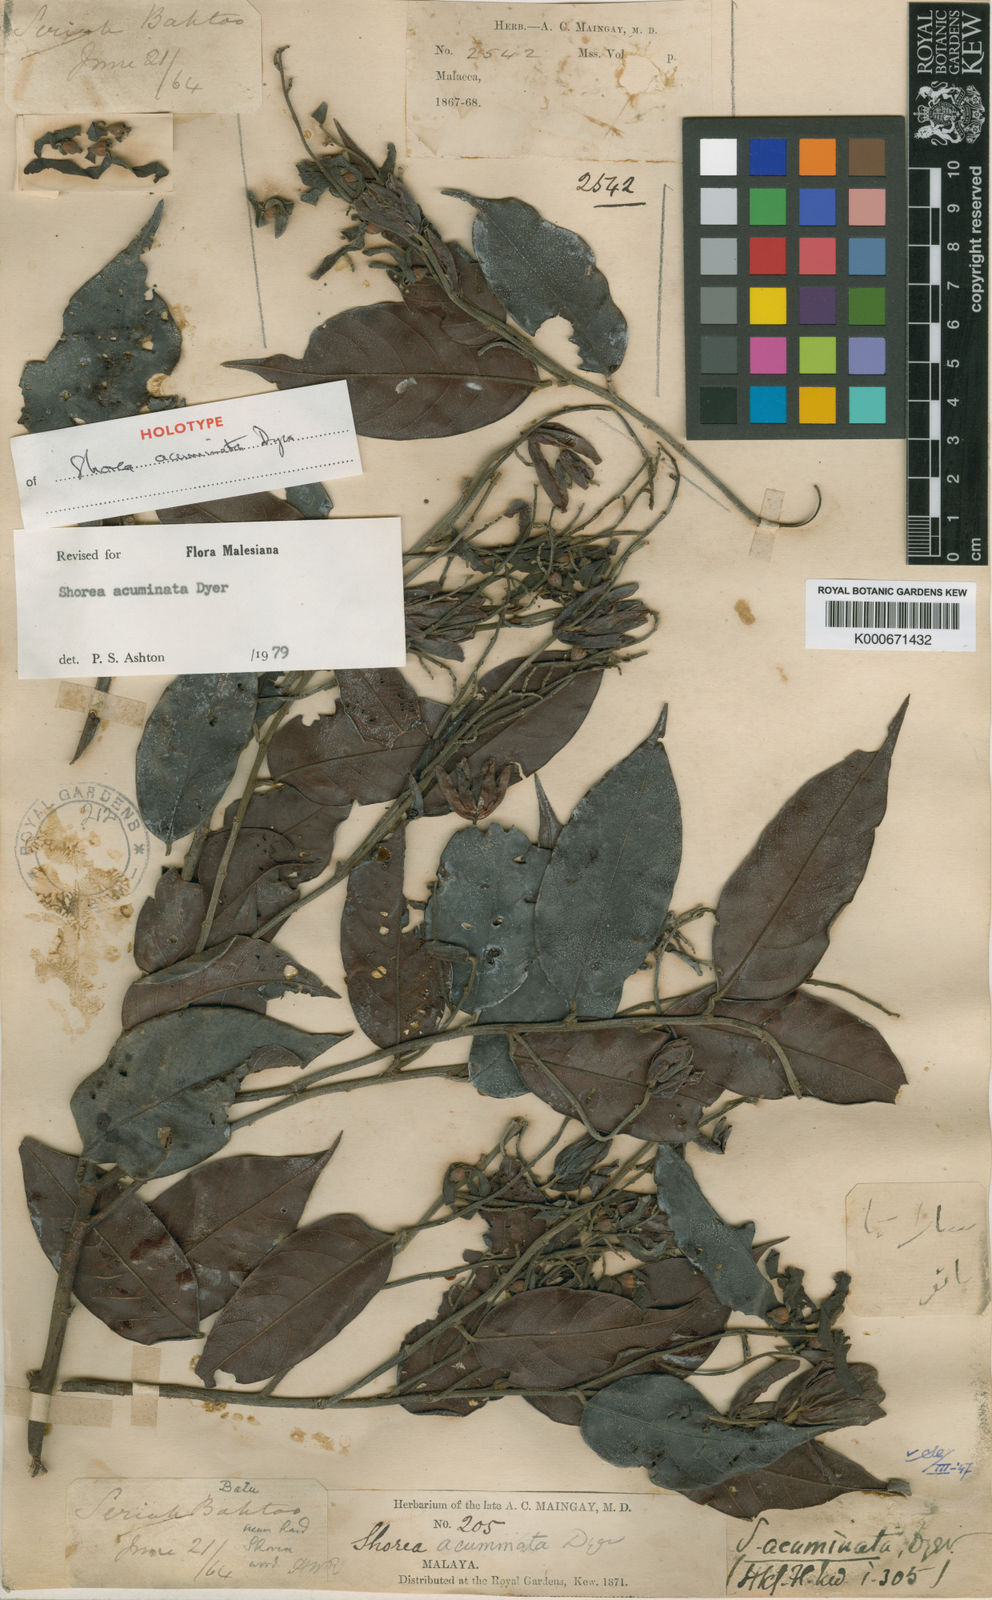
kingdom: Plantae
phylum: Tracheophyta
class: Magnoliopsida
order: Malvales
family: Dipterocarpaceae
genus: Shorea
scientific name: Shorea acuminata
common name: Dark red meranti
